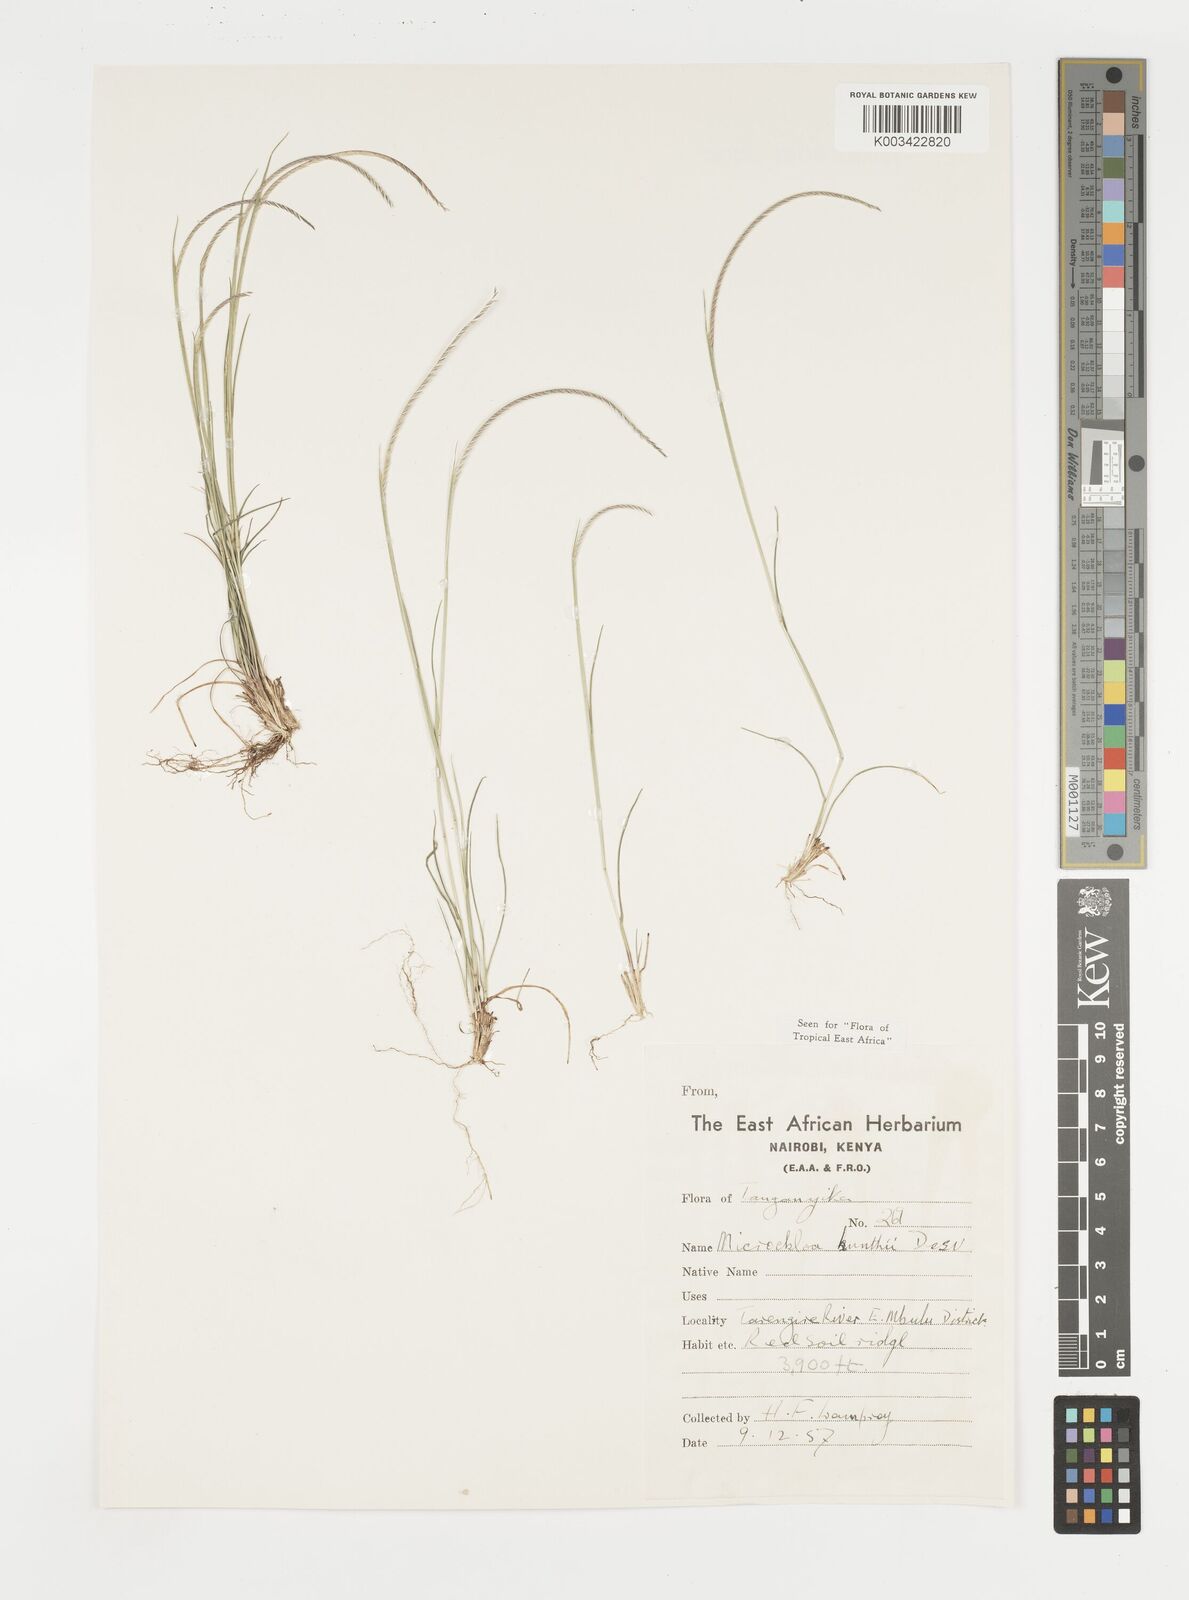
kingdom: Plantae
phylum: Tracheophyta
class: Liliopsida
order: Poales
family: Poaceae
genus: Microchloa
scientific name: Microchloa kunthii
